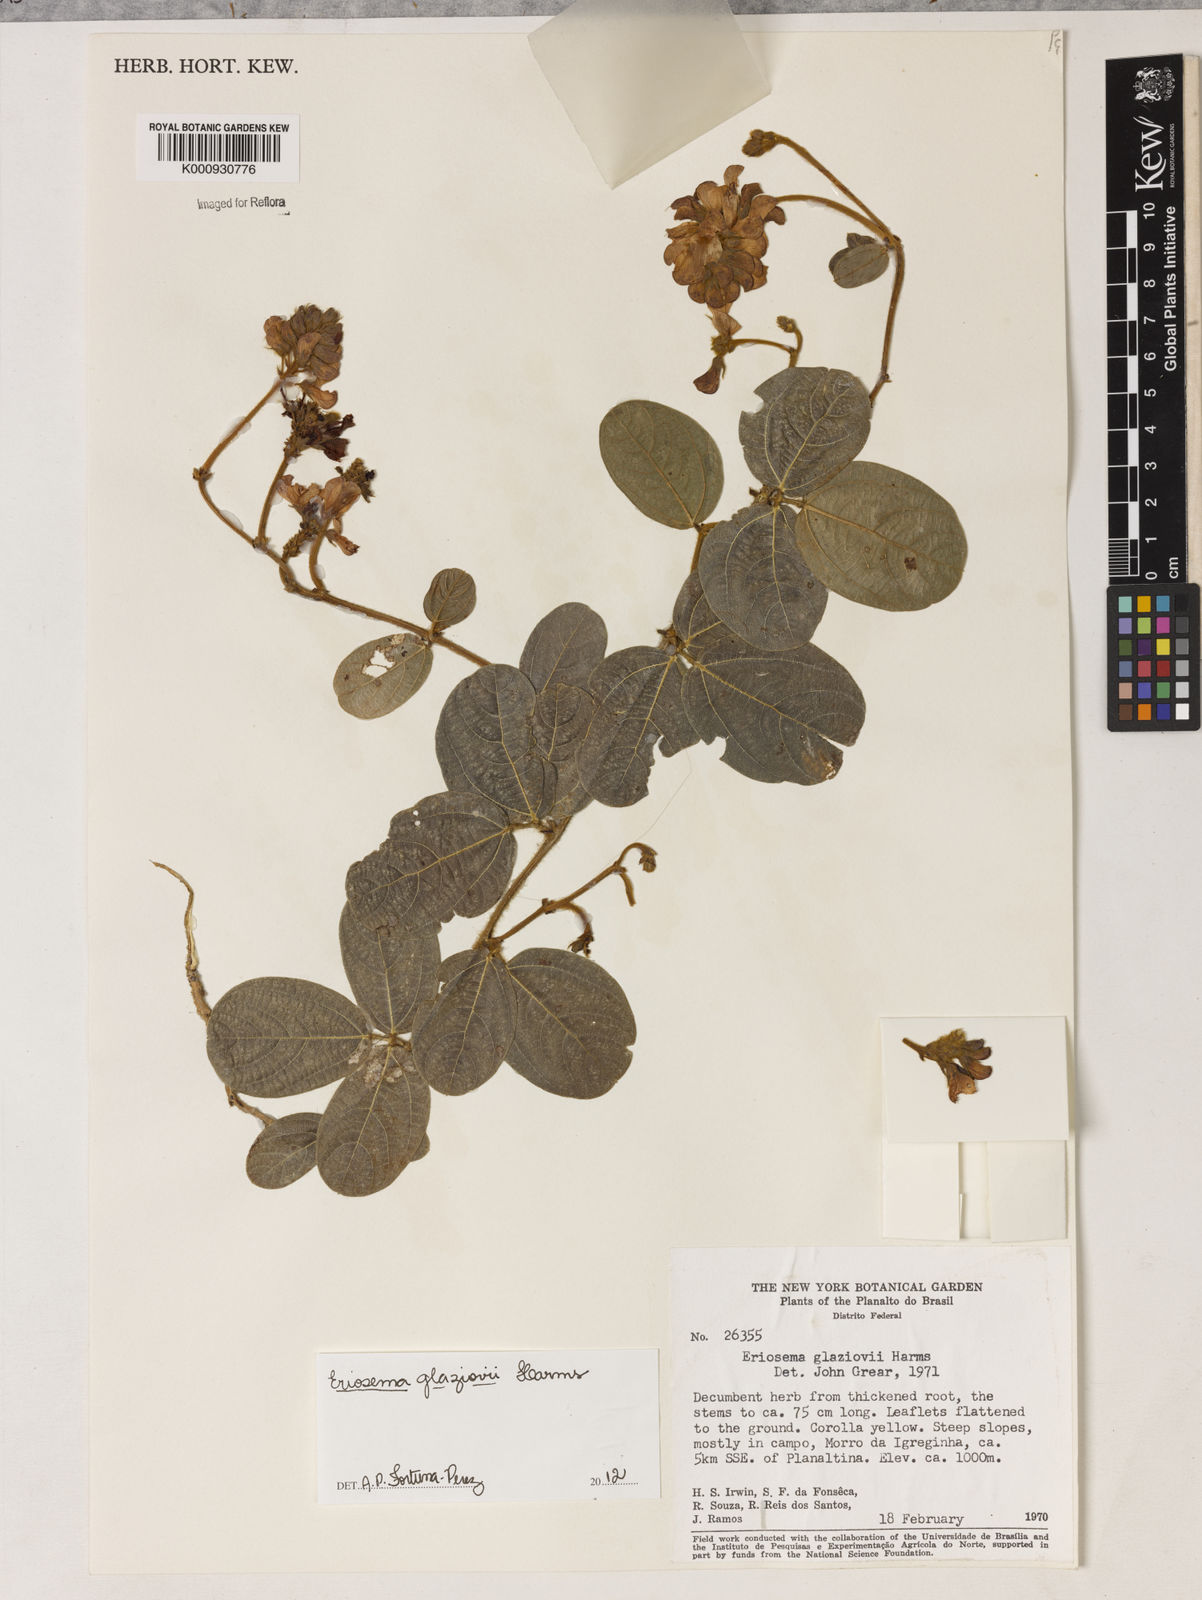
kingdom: Plantae
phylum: Tracheophyta
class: Magnoliopsida
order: Fabales
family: Fabaceae
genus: Eriosema
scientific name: Eriosema glaziovii
